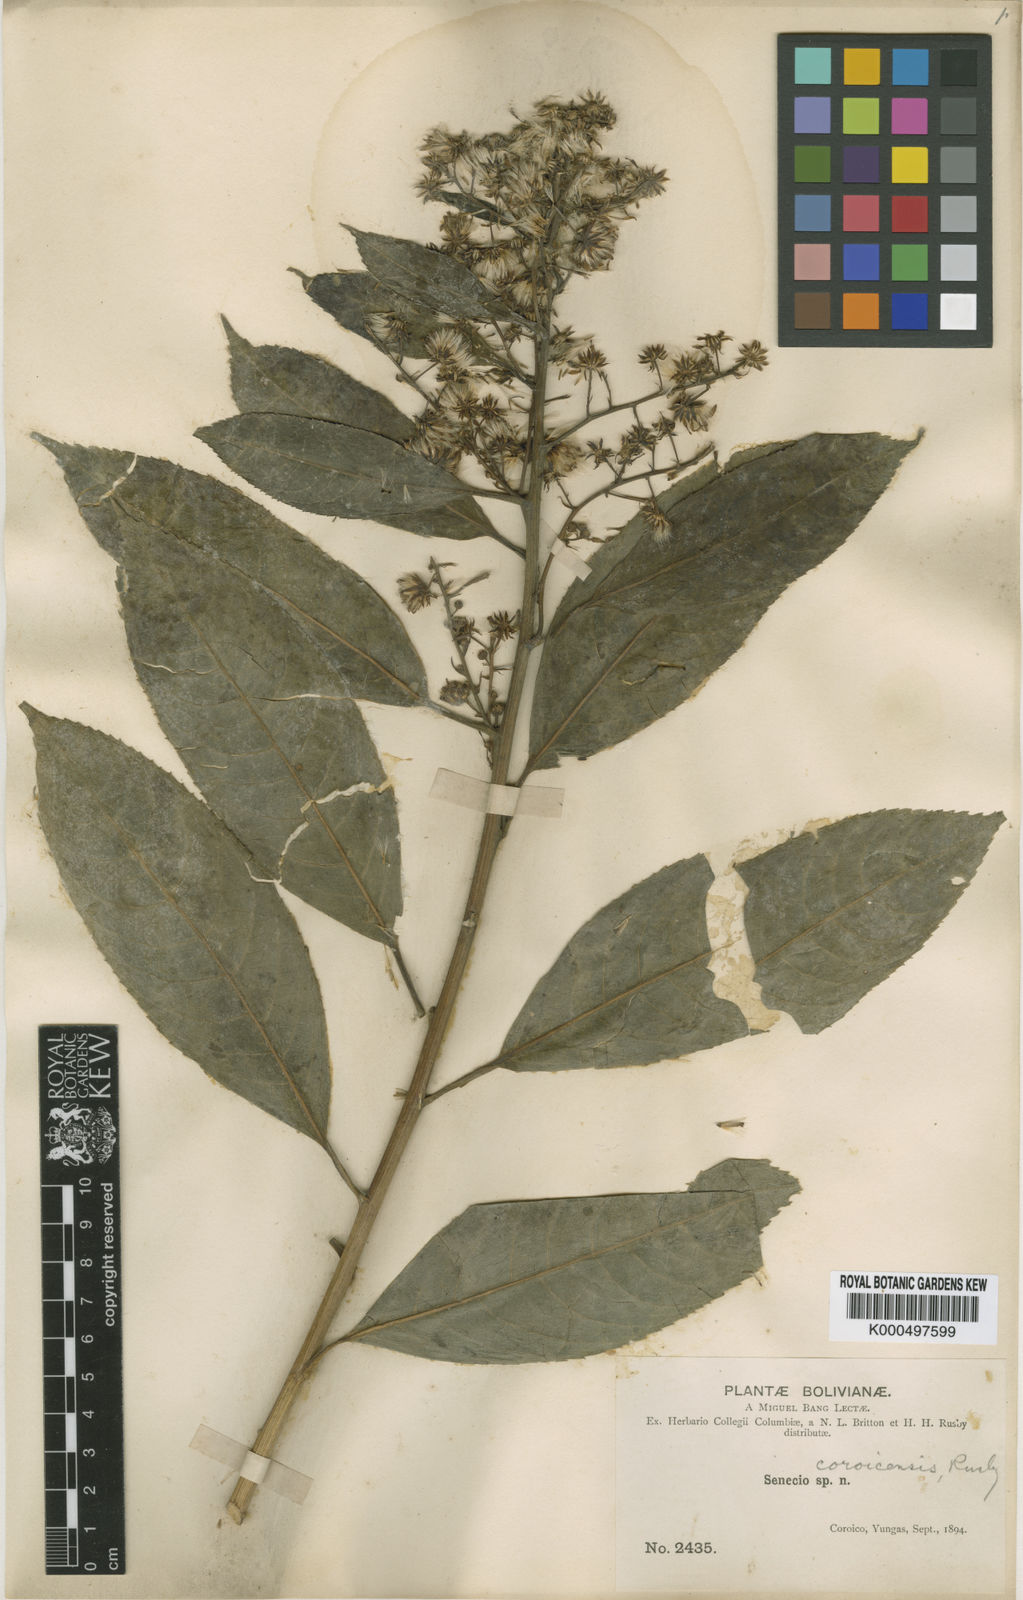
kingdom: Plantae
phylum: Tracheophyta
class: Magnoliopsida
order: Asterales
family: Asteraceae
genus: Dendrophorbium
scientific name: Dendrophorbium coroicense
